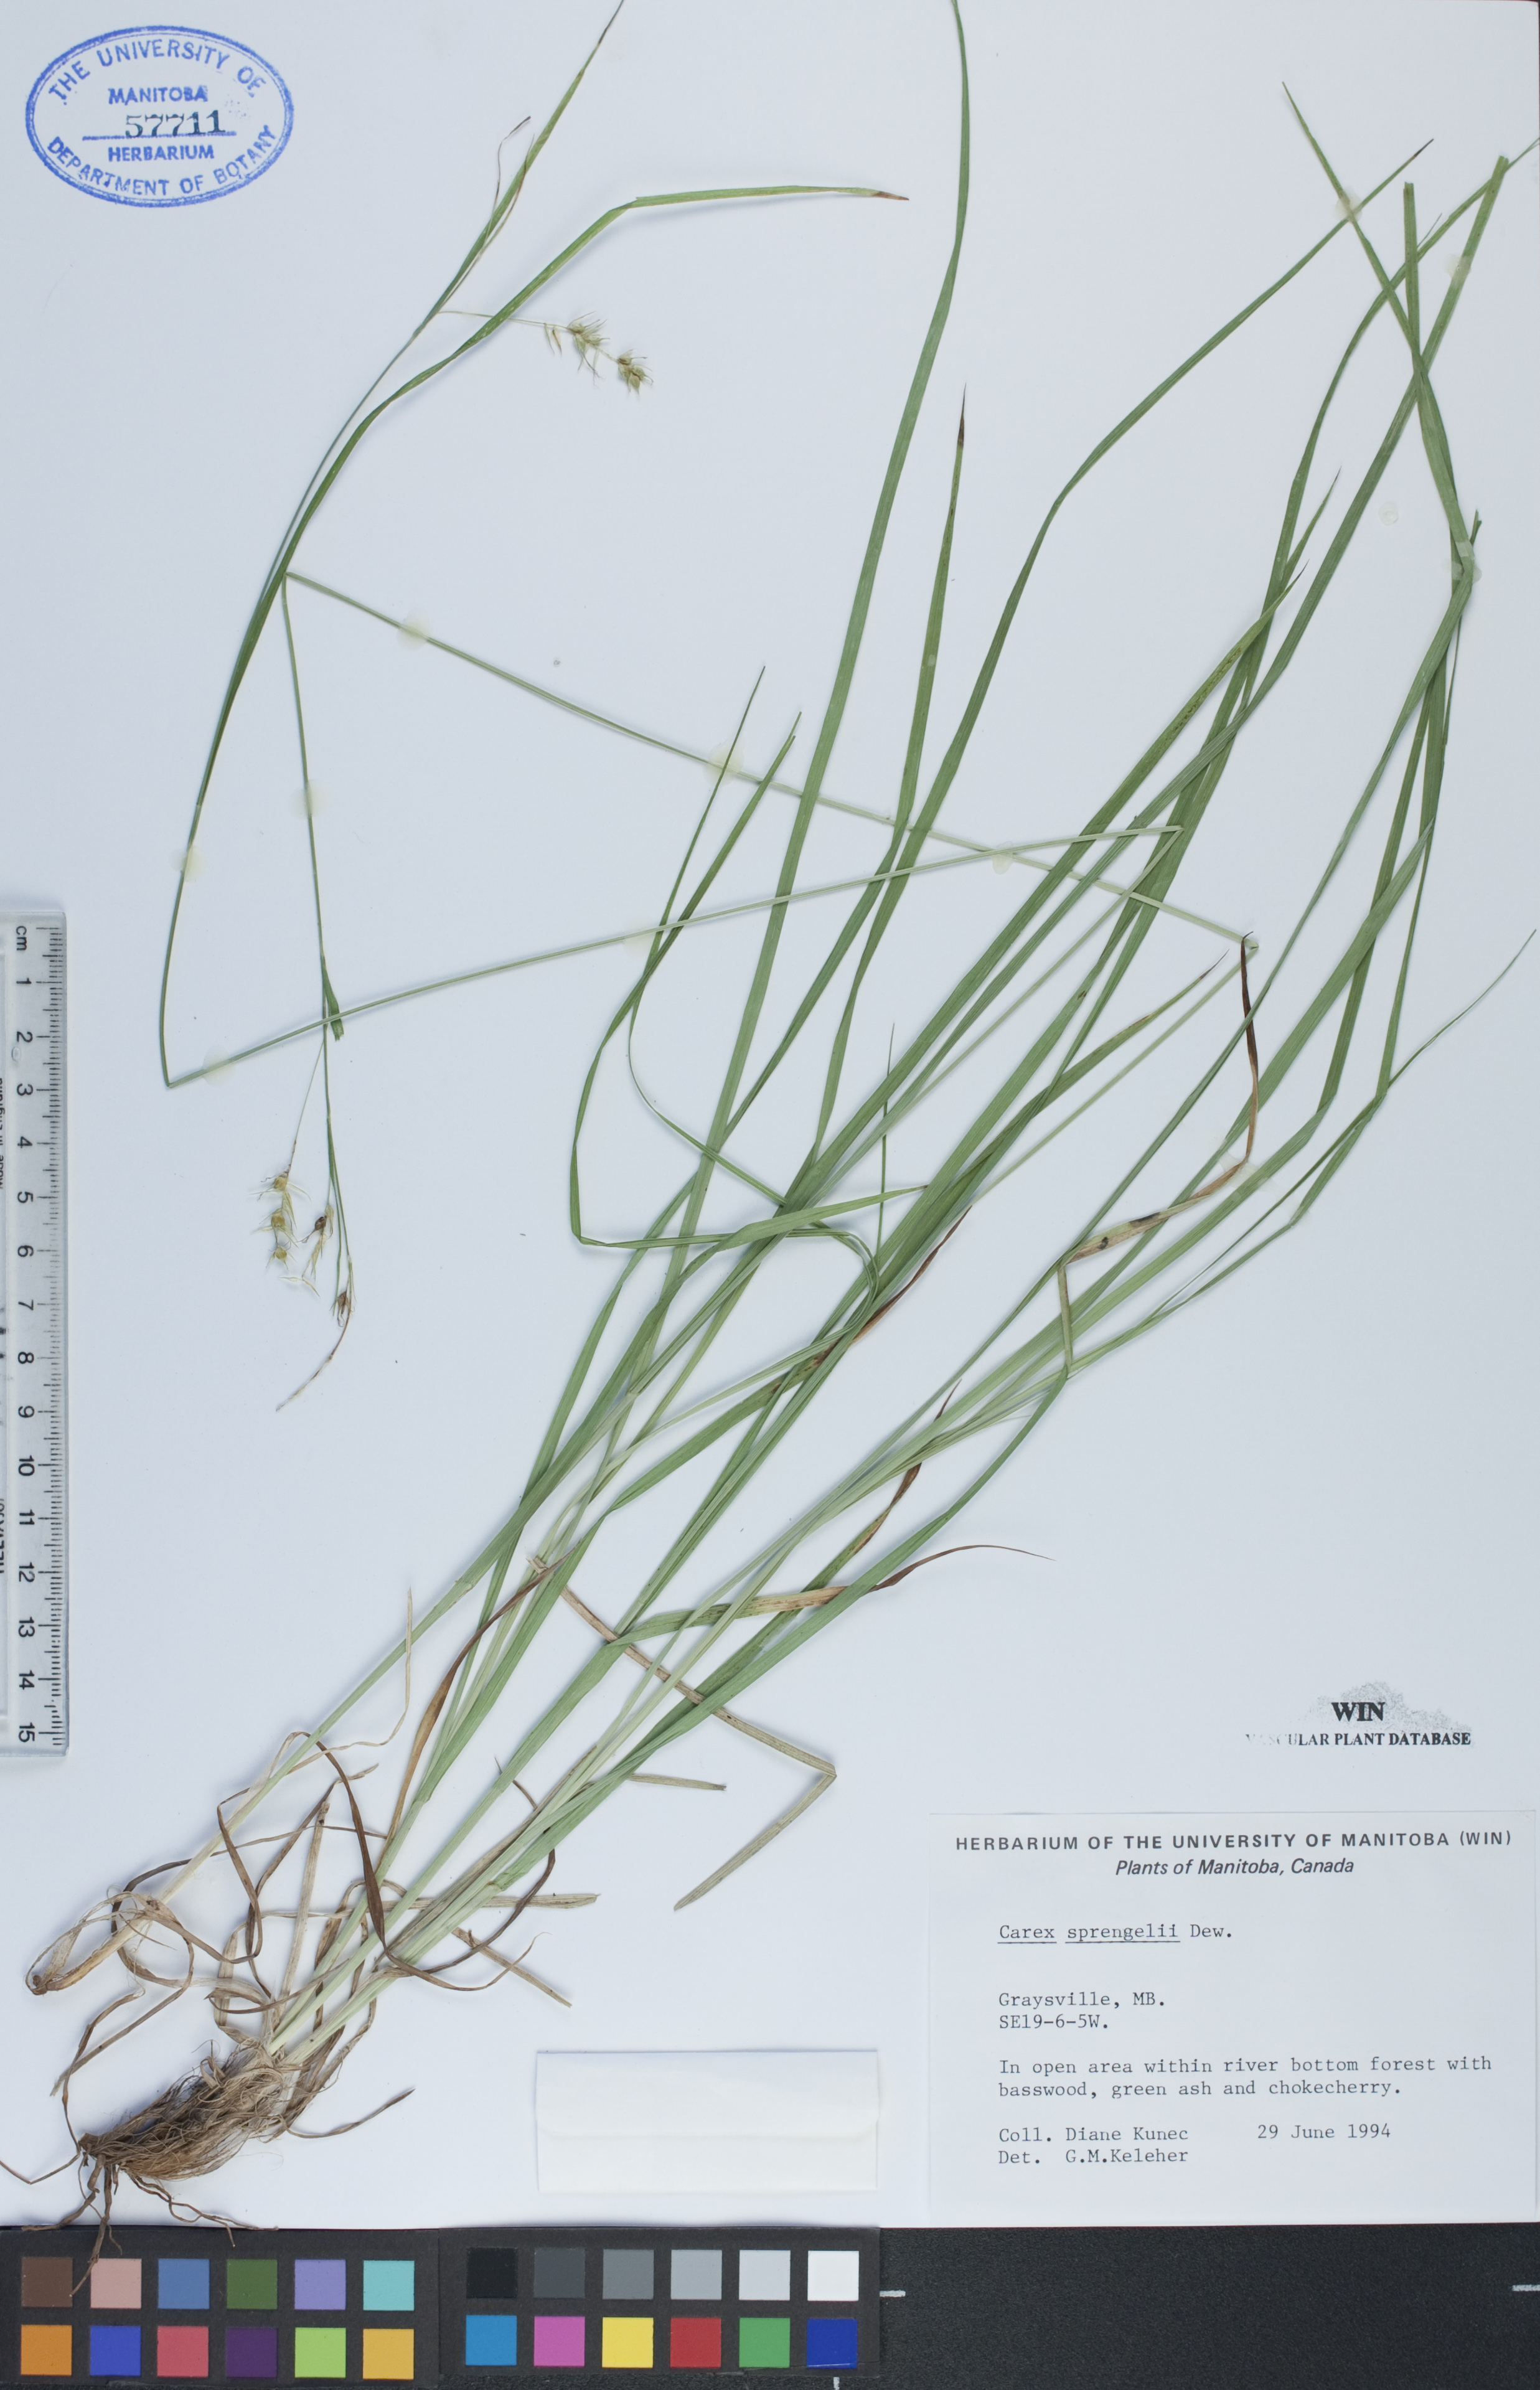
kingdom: Plantae
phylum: Tracheophyta
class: Liliopsida
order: Poales
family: Cyperaceae
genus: Carex
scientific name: Carex sprengelii
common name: Long-beaked sedge
